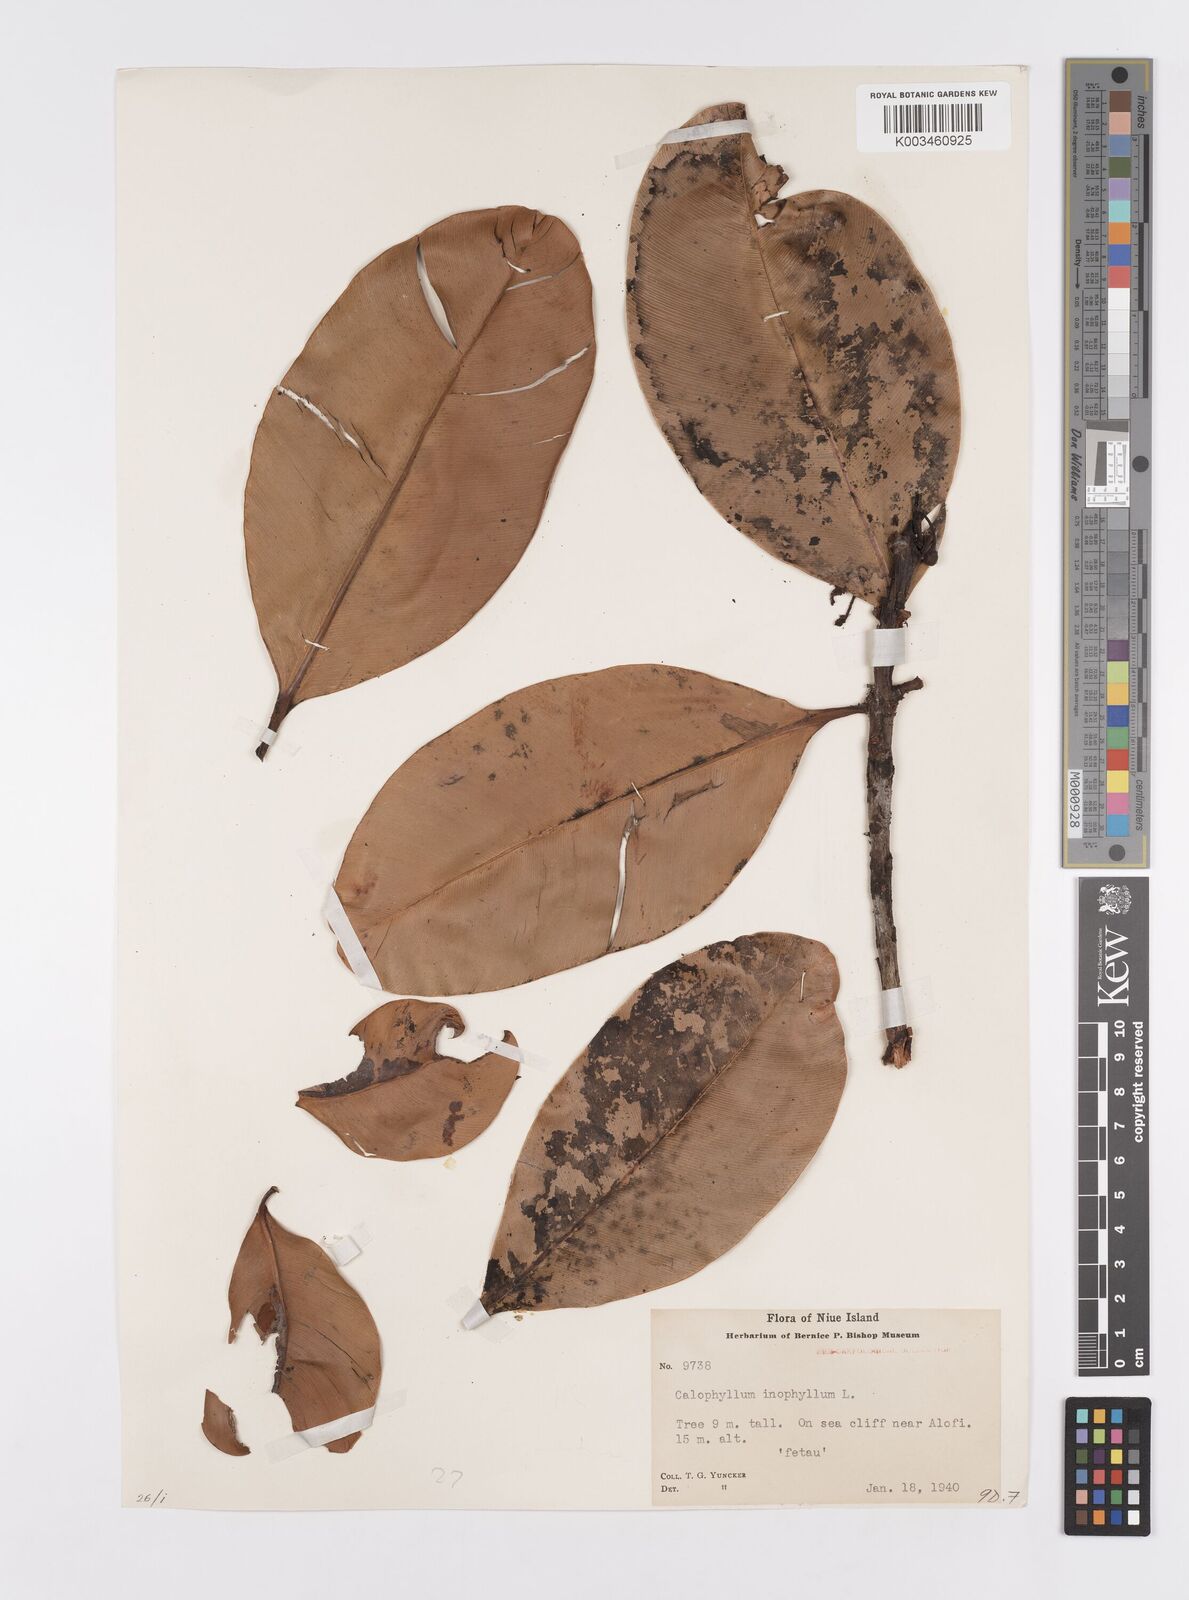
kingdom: Plantae
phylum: Tracheophyta
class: Magnoliopsida
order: Malpighiales
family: Calophyllaceae
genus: Calophyllum
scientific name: Calophyllum inophyllum
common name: Alexandrian laurel
